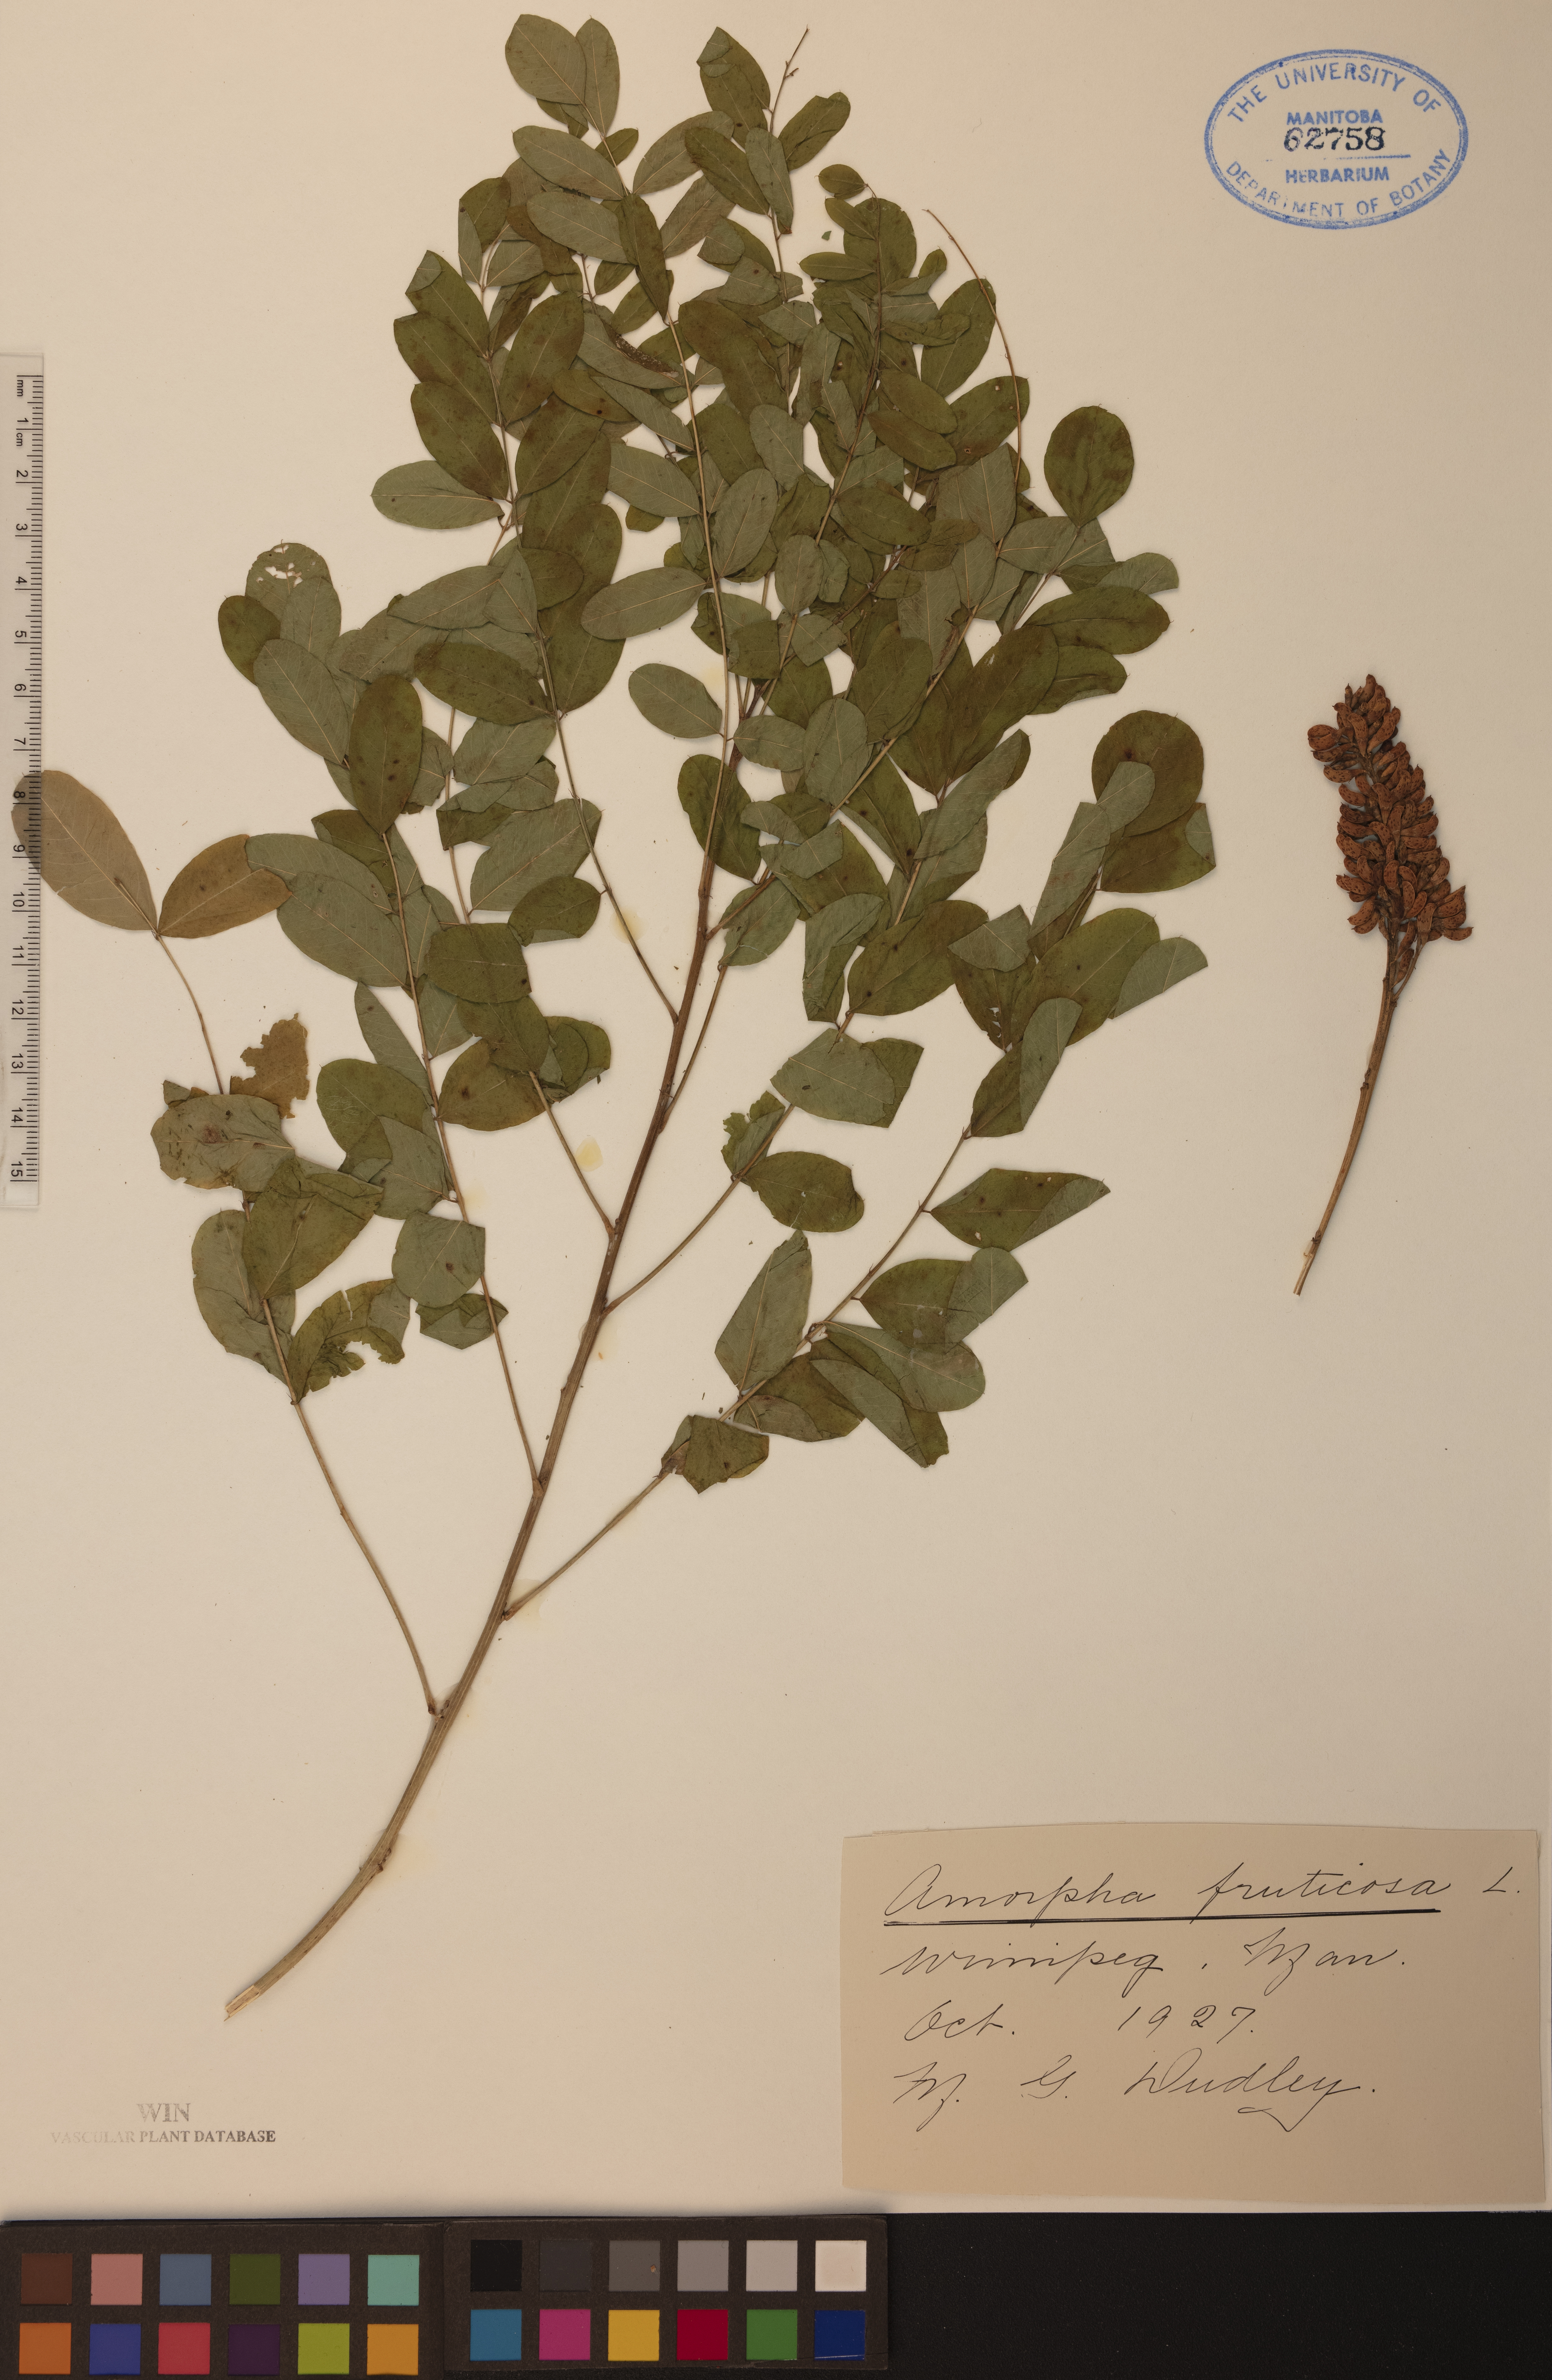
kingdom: Plantae
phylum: Tracheophyta
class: Magnoliopsida
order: Fabales
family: Fabaceae
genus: Amorpha
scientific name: Amorpha fruticosa
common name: False indigo
